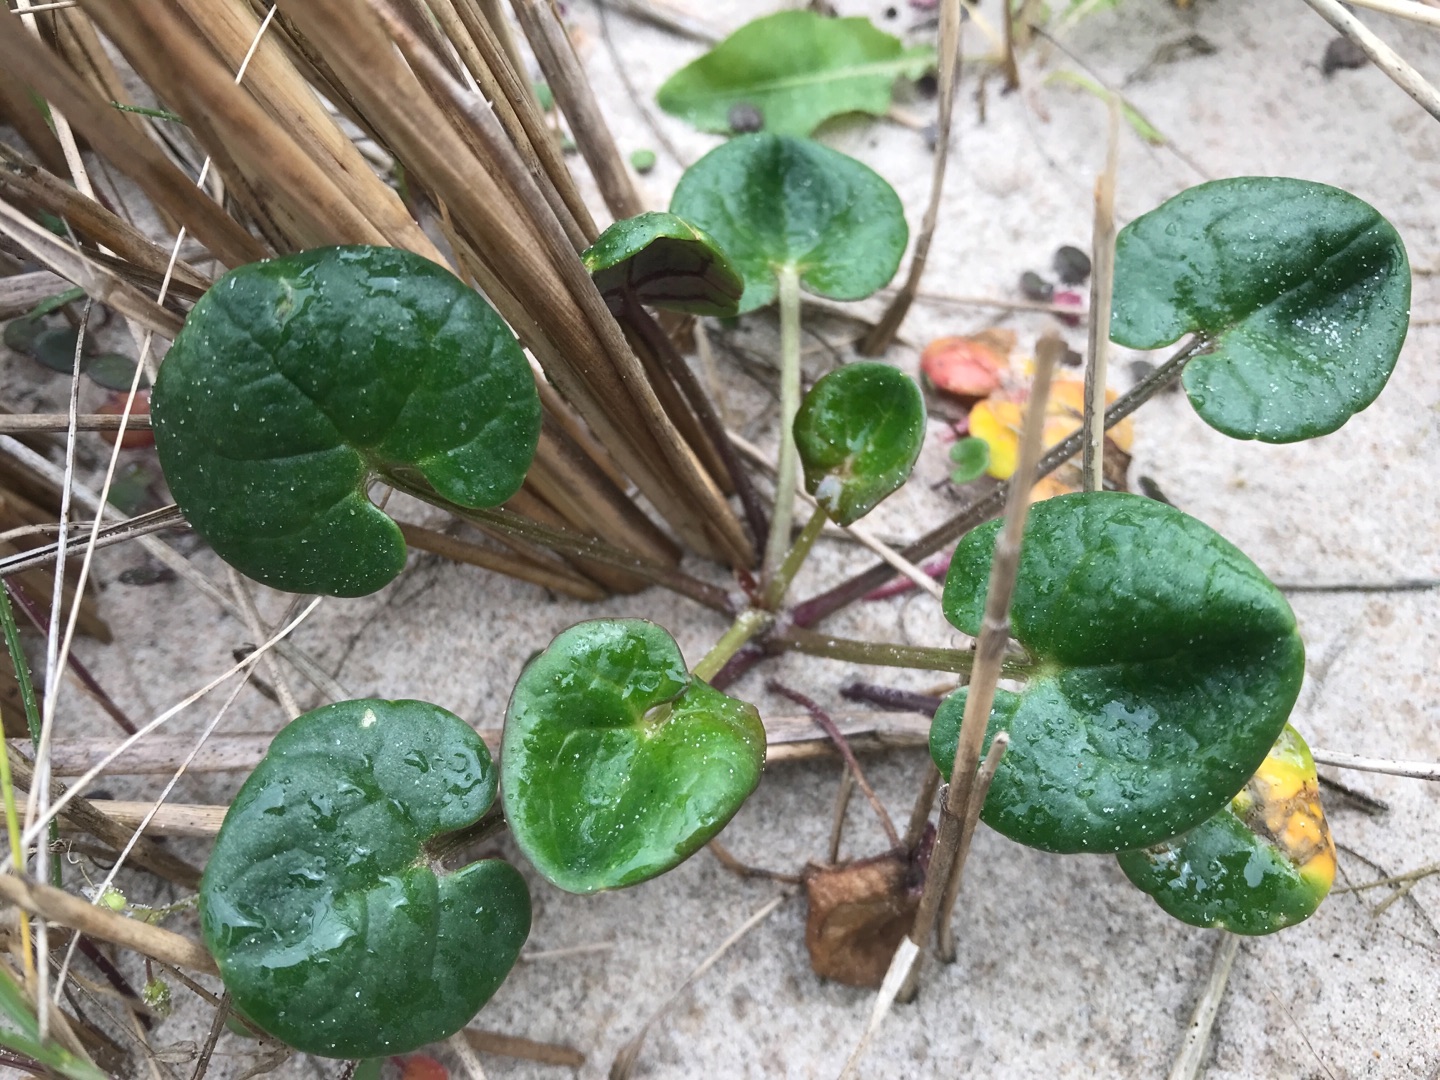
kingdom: Plantae
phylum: Tracheophyta
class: Magnoliopsida
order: Brassicales
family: Brassicaceae
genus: Cochlearia
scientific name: Cochlearia officinalis
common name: Læge-kokleare
